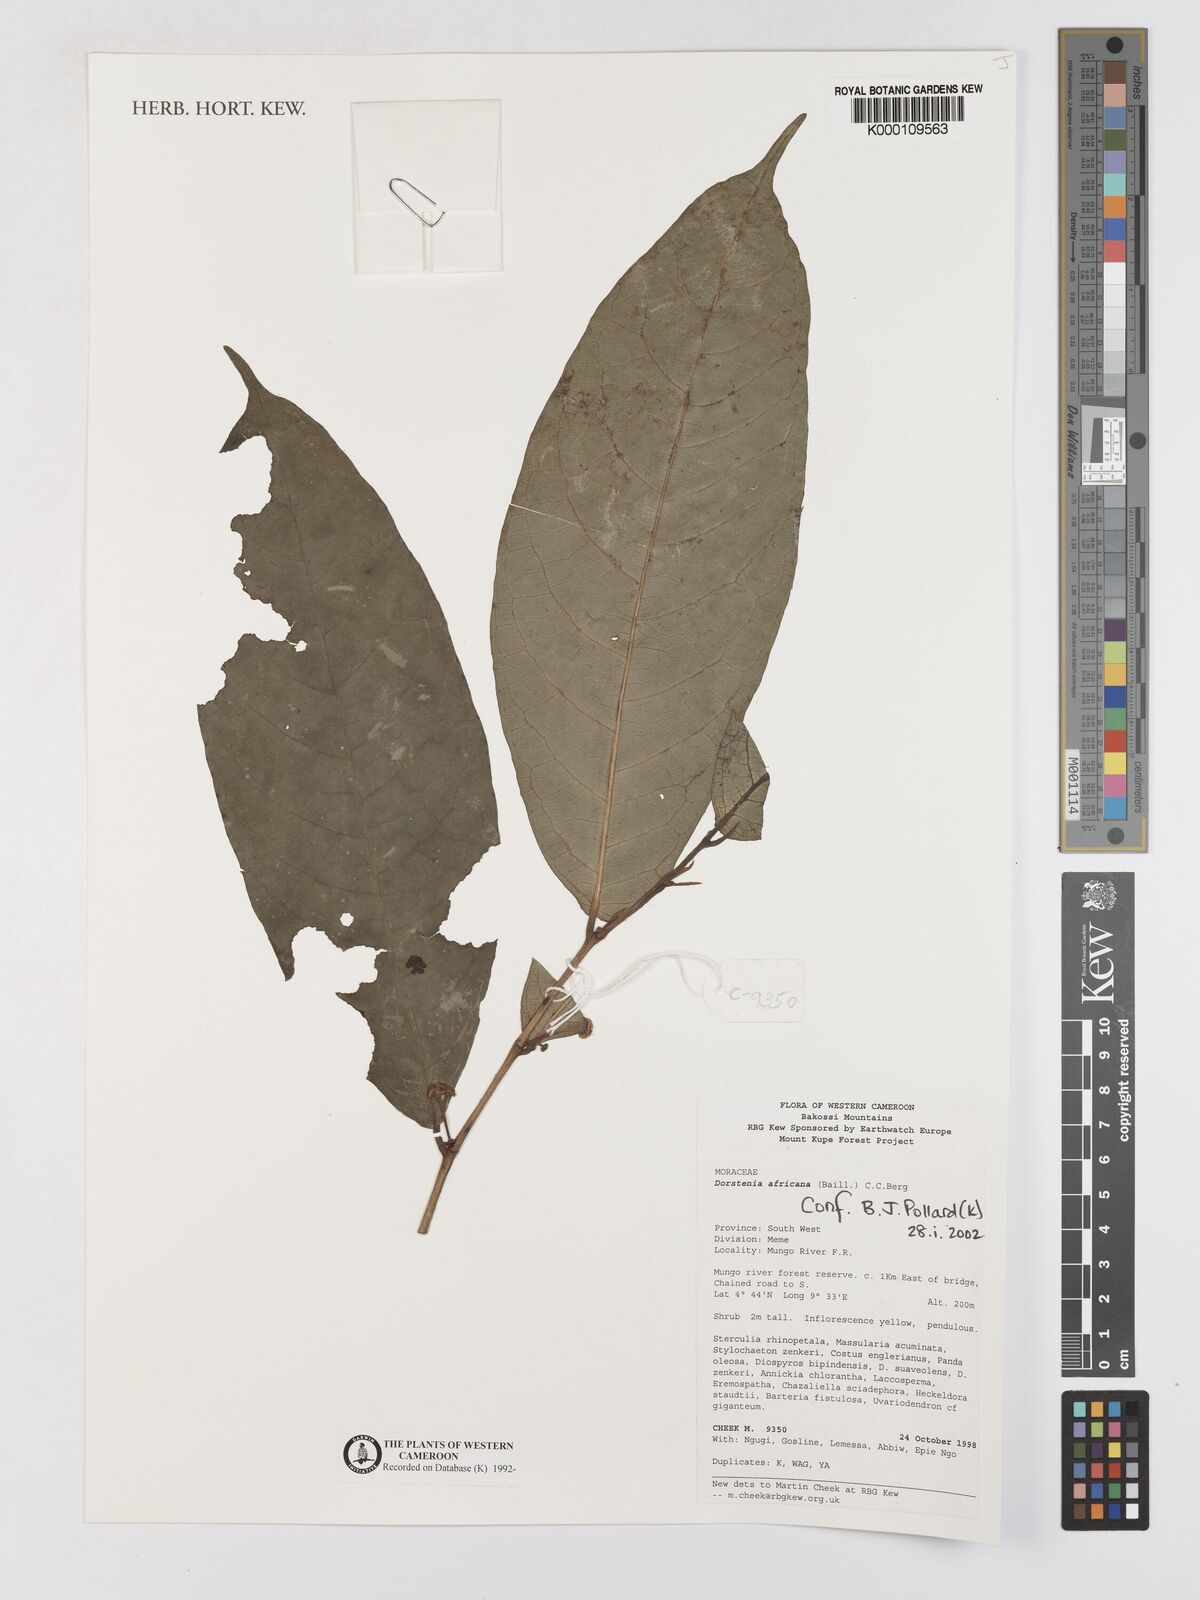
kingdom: Plantae
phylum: Tracheophyta
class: Magnoliopsida
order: Rosales
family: Moraceae
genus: Dorstenia
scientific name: Dorstenia africana
